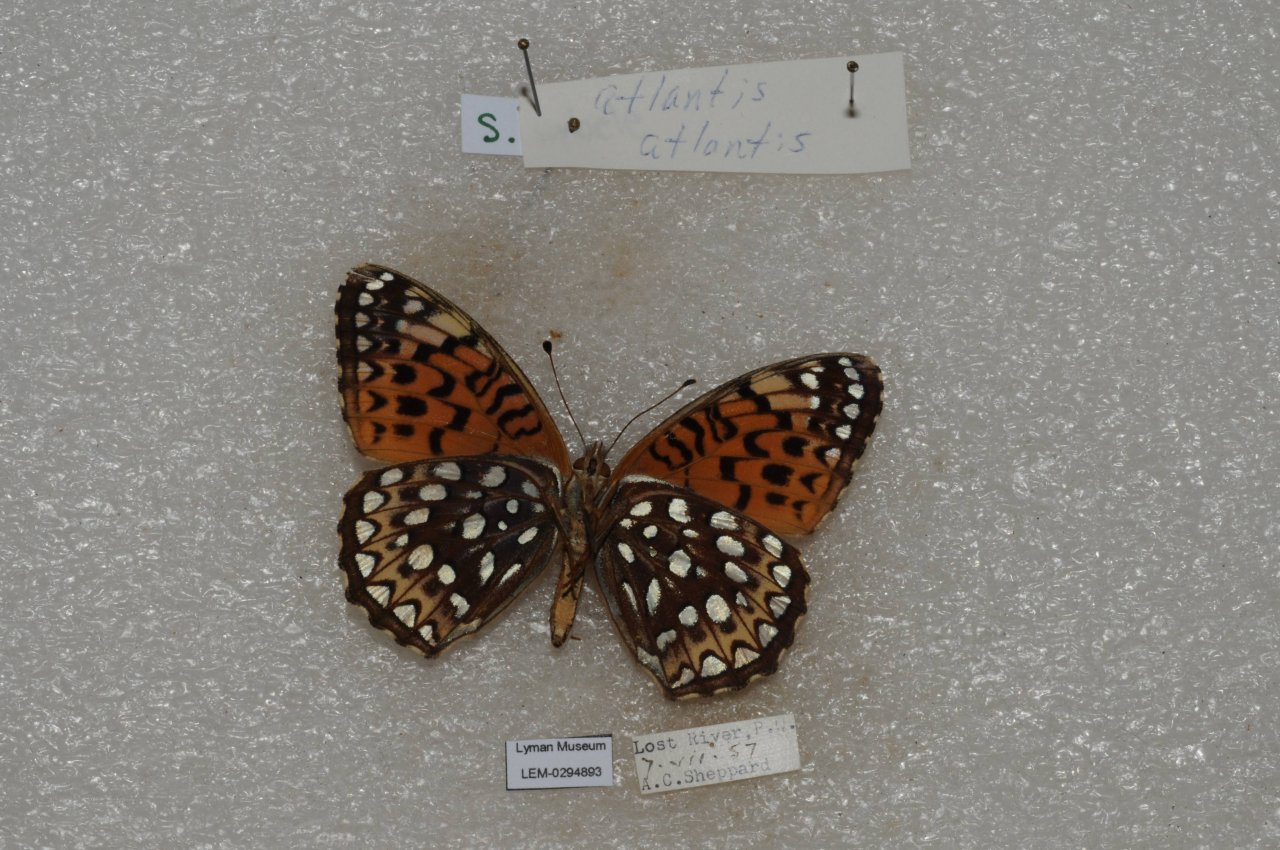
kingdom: Animalia
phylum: Arthropoda
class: Insecta
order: Lepidoptera
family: Nymphalidae
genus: Speyeria
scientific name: Speyeria atlantis
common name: Atlantis Fritillary
